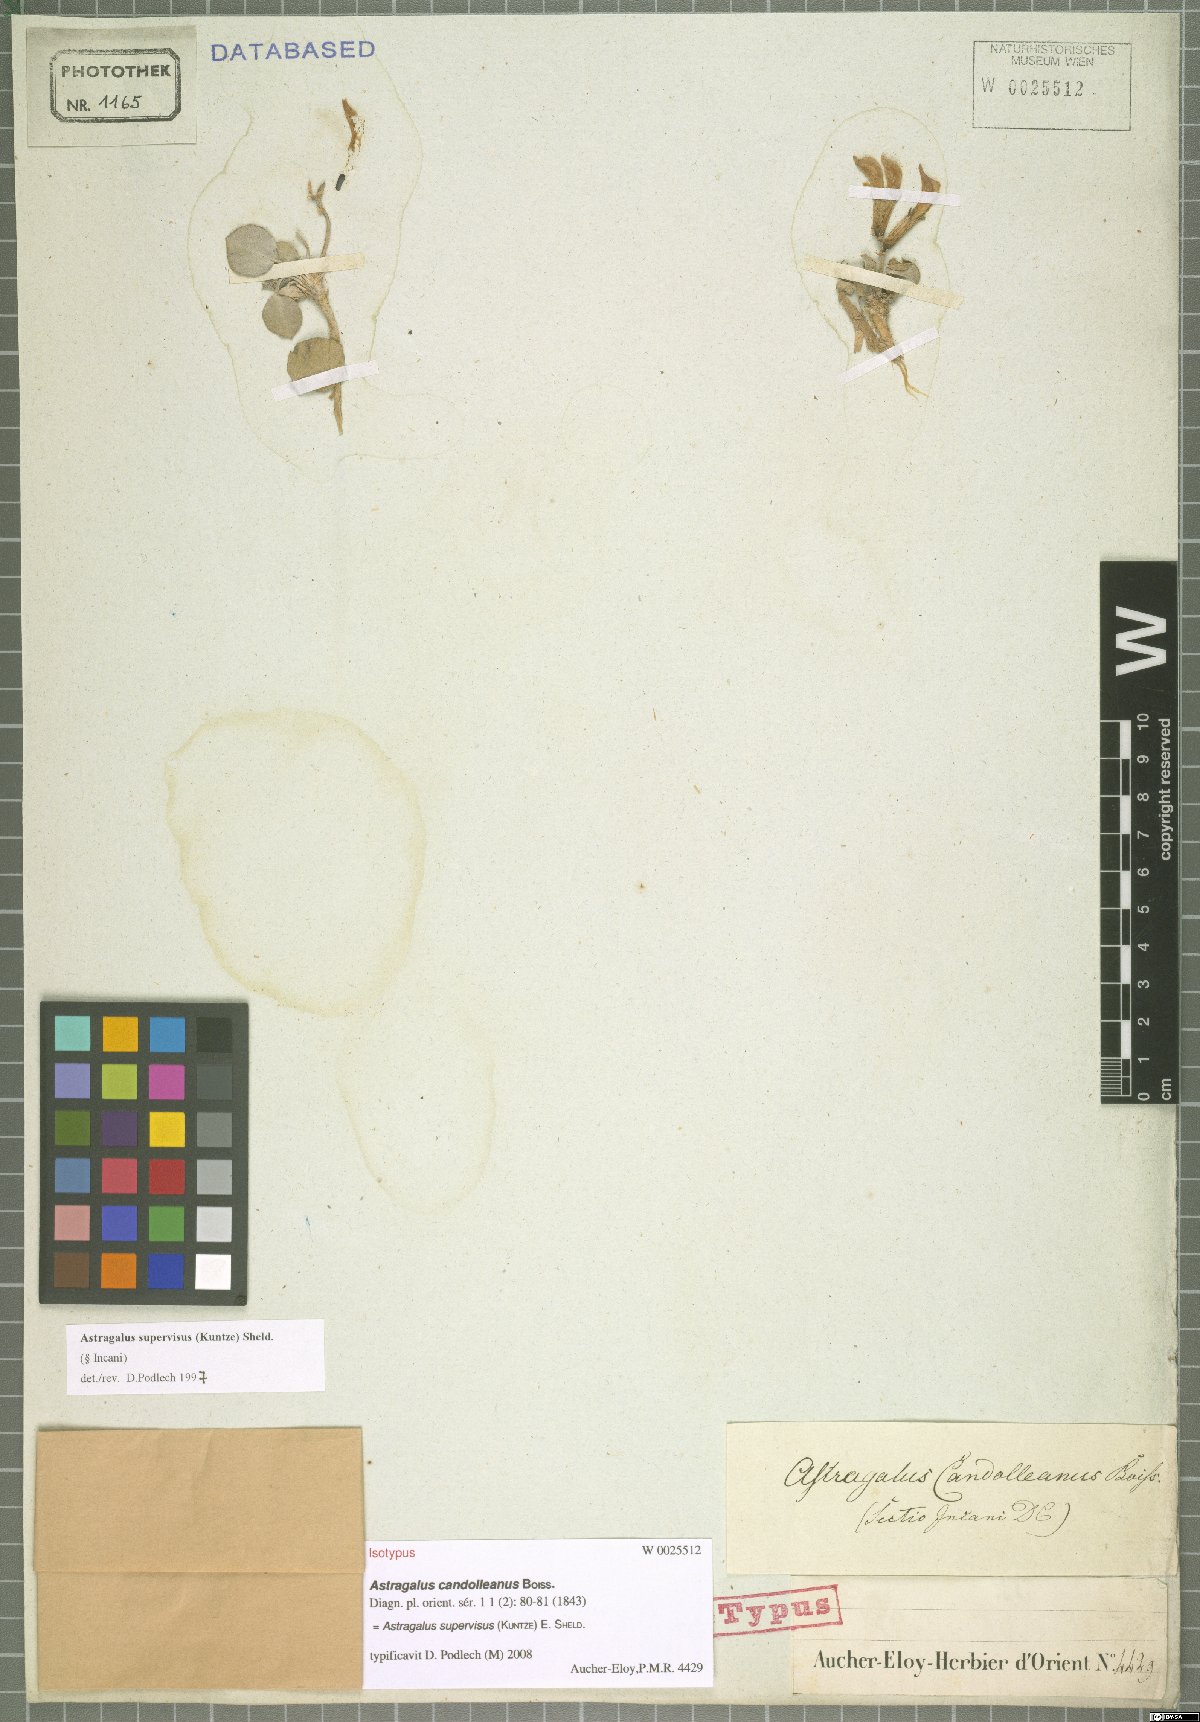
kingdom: Plantae
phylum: Tracheophyta
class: Magnoliopsida
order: Fabales
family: Fabaceae
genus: Astragalus
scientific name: Astragalus supervisus
